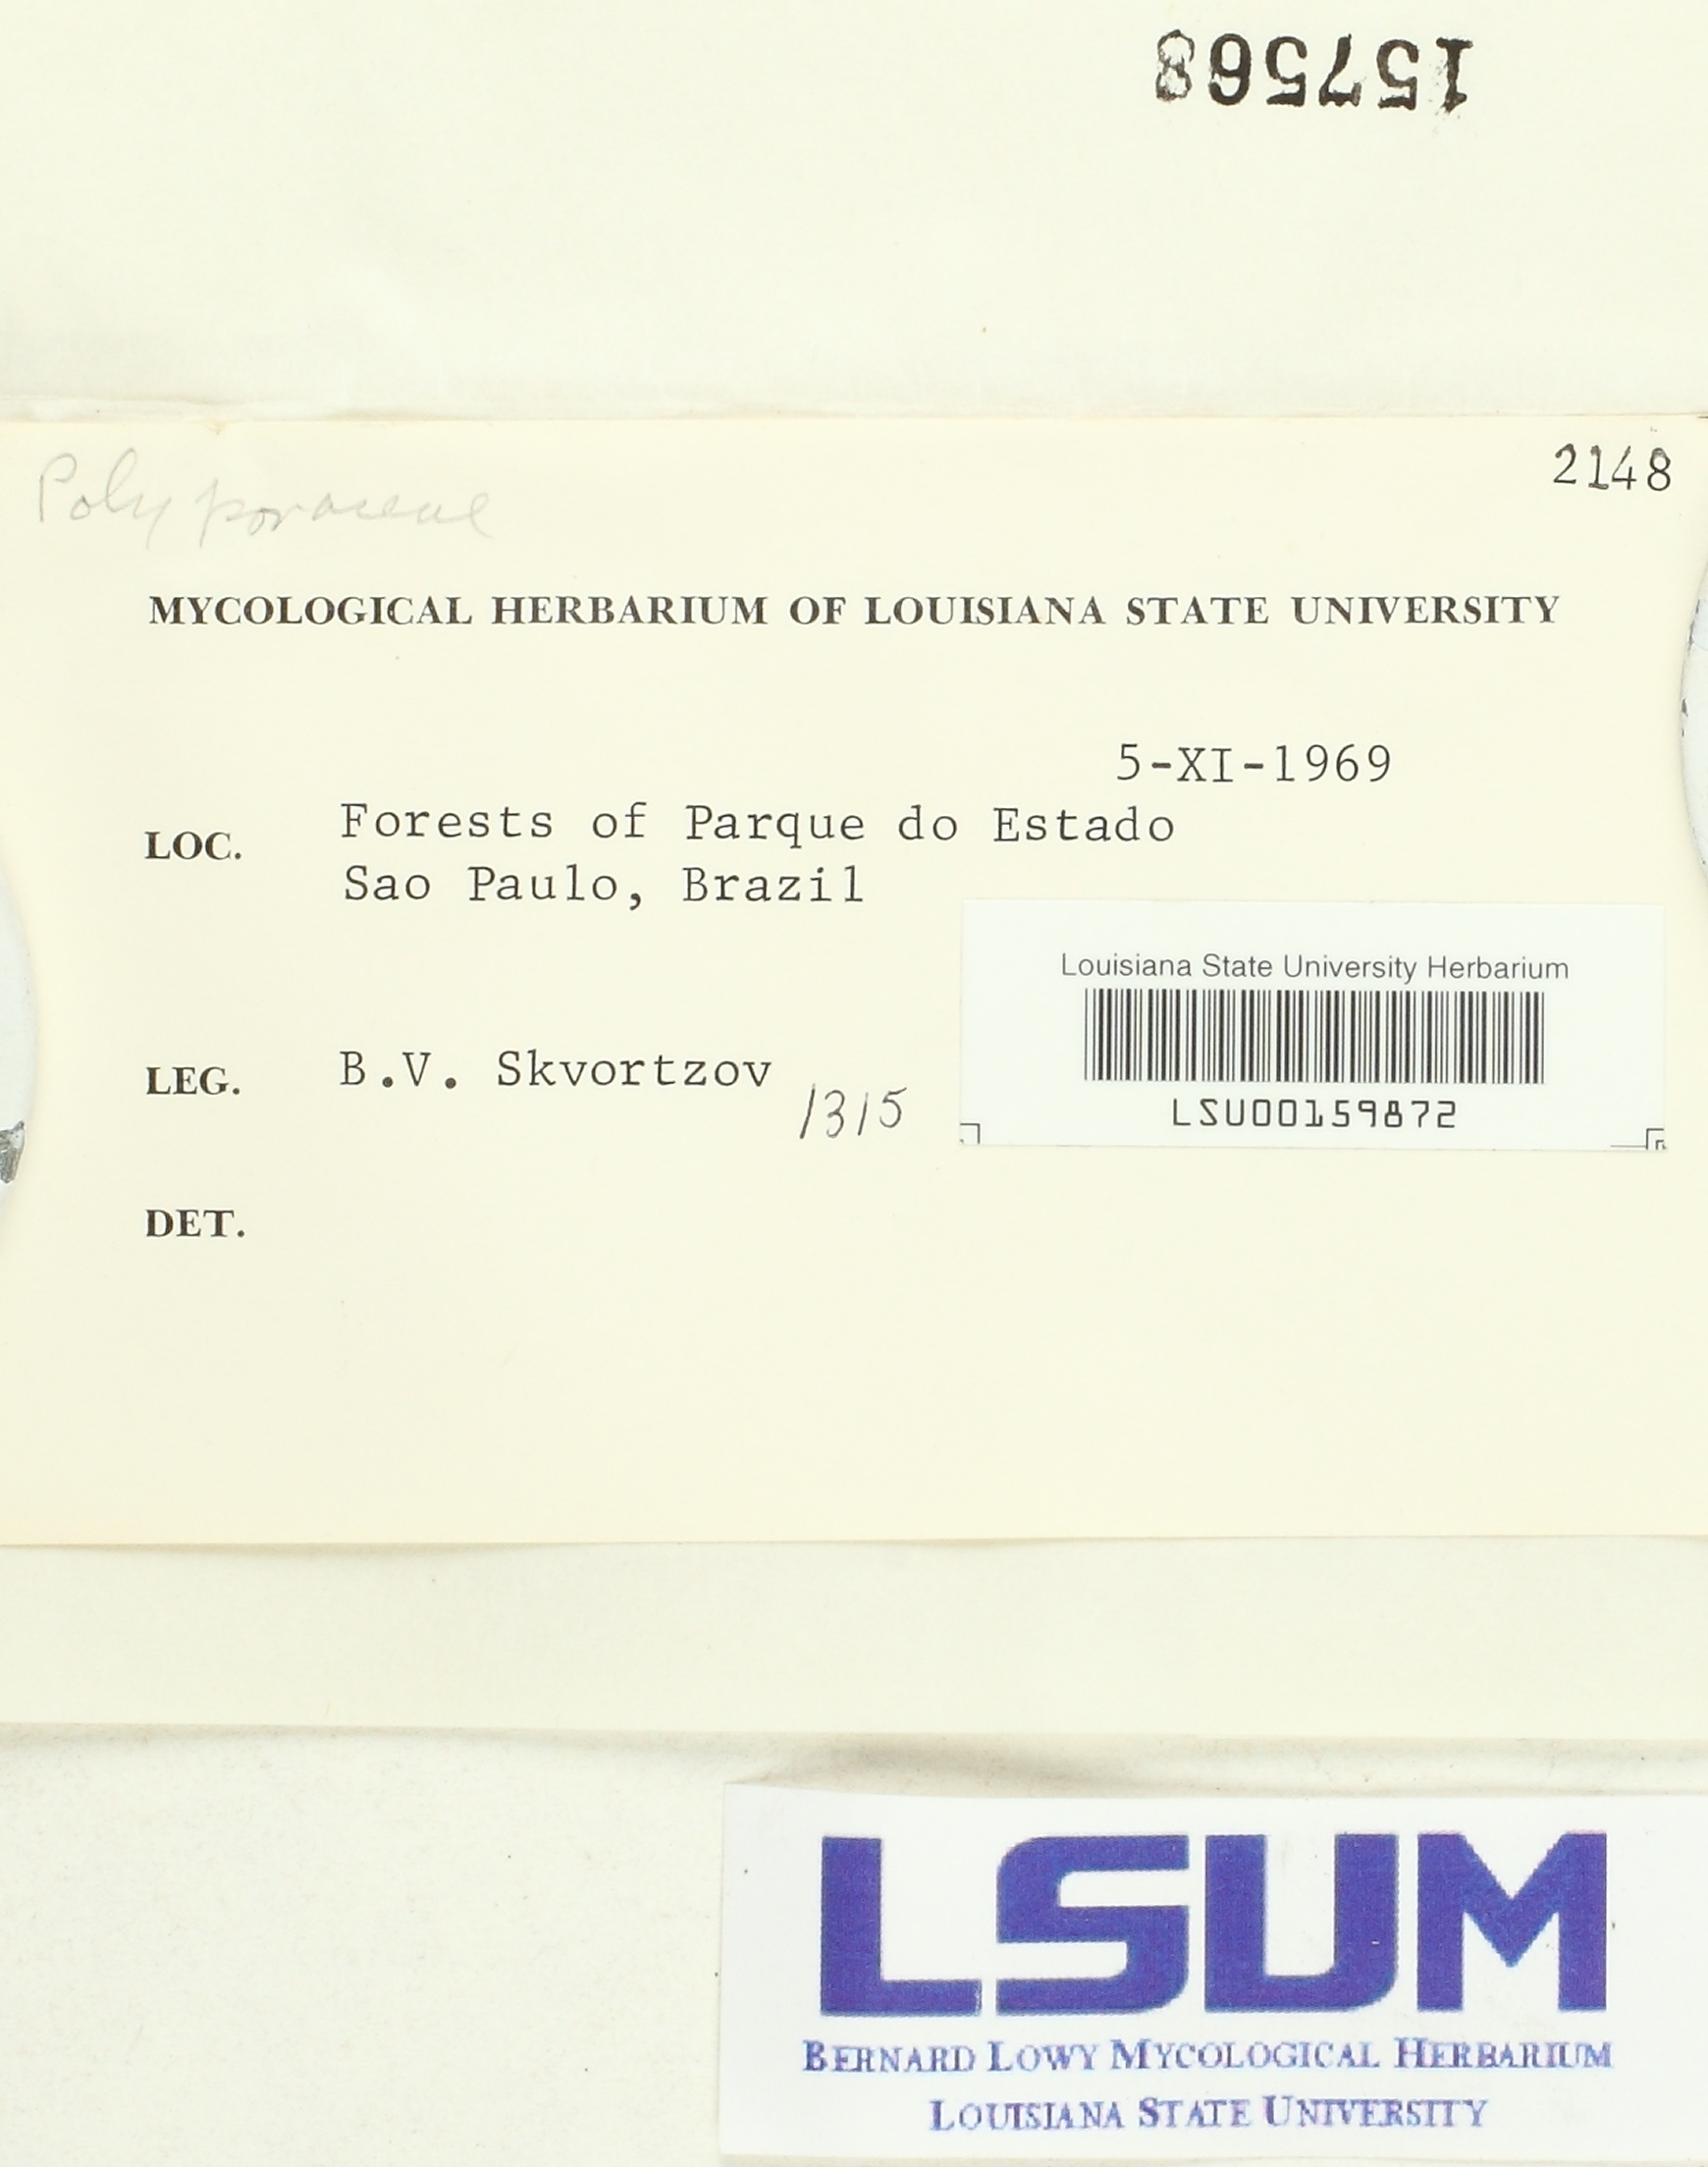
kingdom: Fungi
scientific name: Fungi
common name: Fungi
